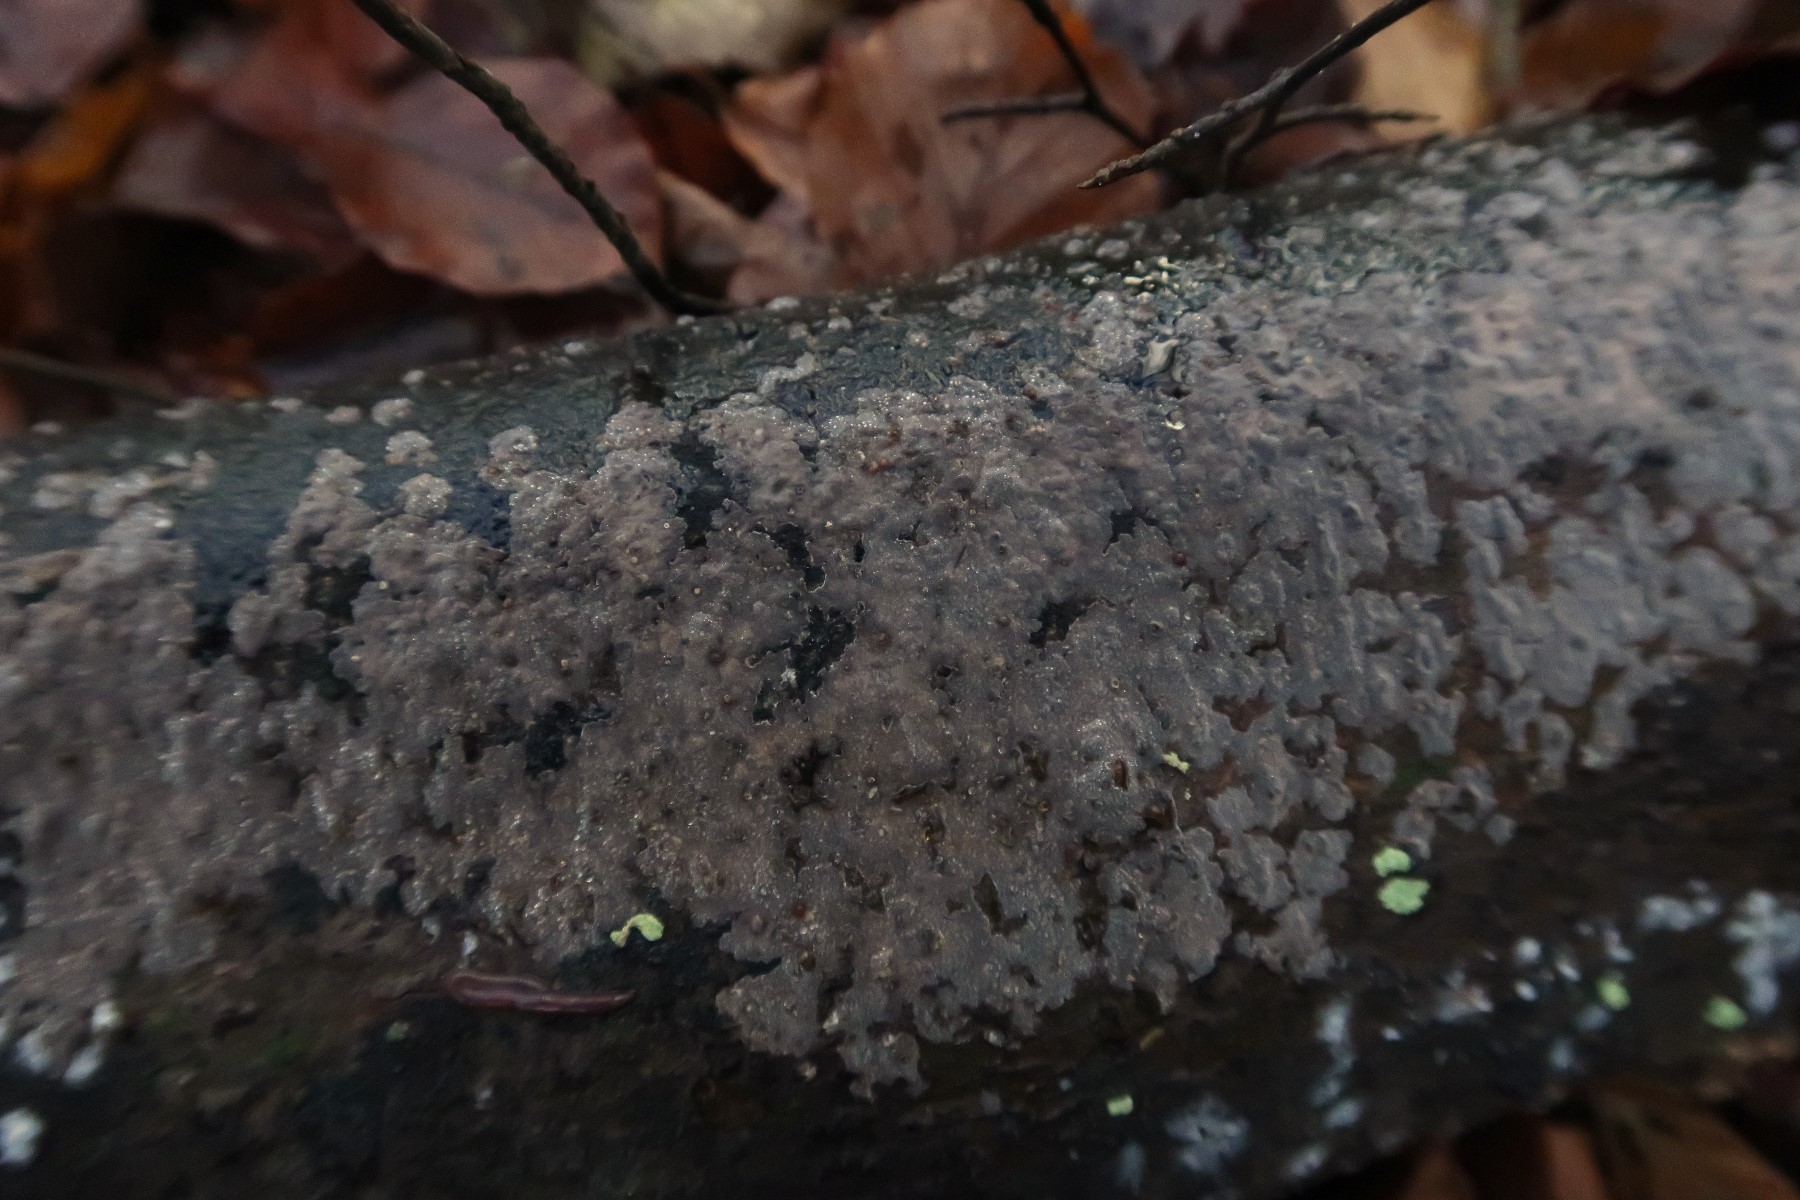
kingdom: Fungi
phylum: Basidiomycota
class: Agaricomycetes
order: Auriculariales
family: Auriculariaceae
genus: Exidia
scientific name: Exidia thuretiana
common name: hvidlig bævretop
